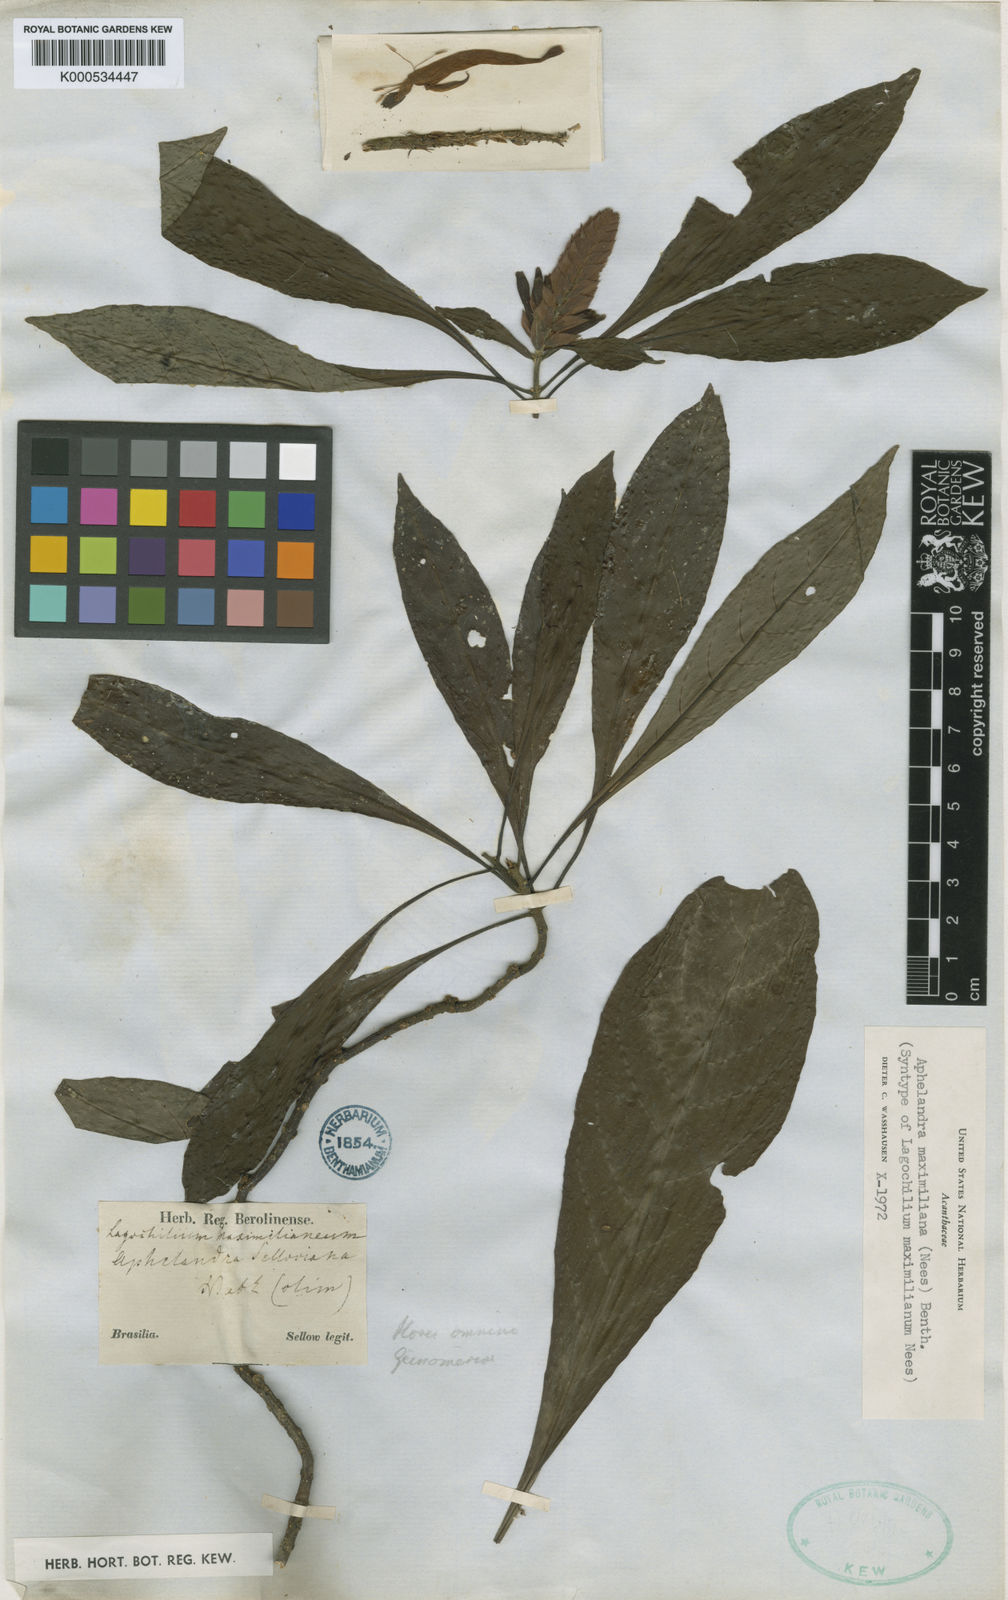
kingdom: Plantae
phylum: Tracheophyta
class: Magnoliopsida
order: Lamiales
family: Acanthaceae
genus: Aphelandra
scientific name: Aphelandra
